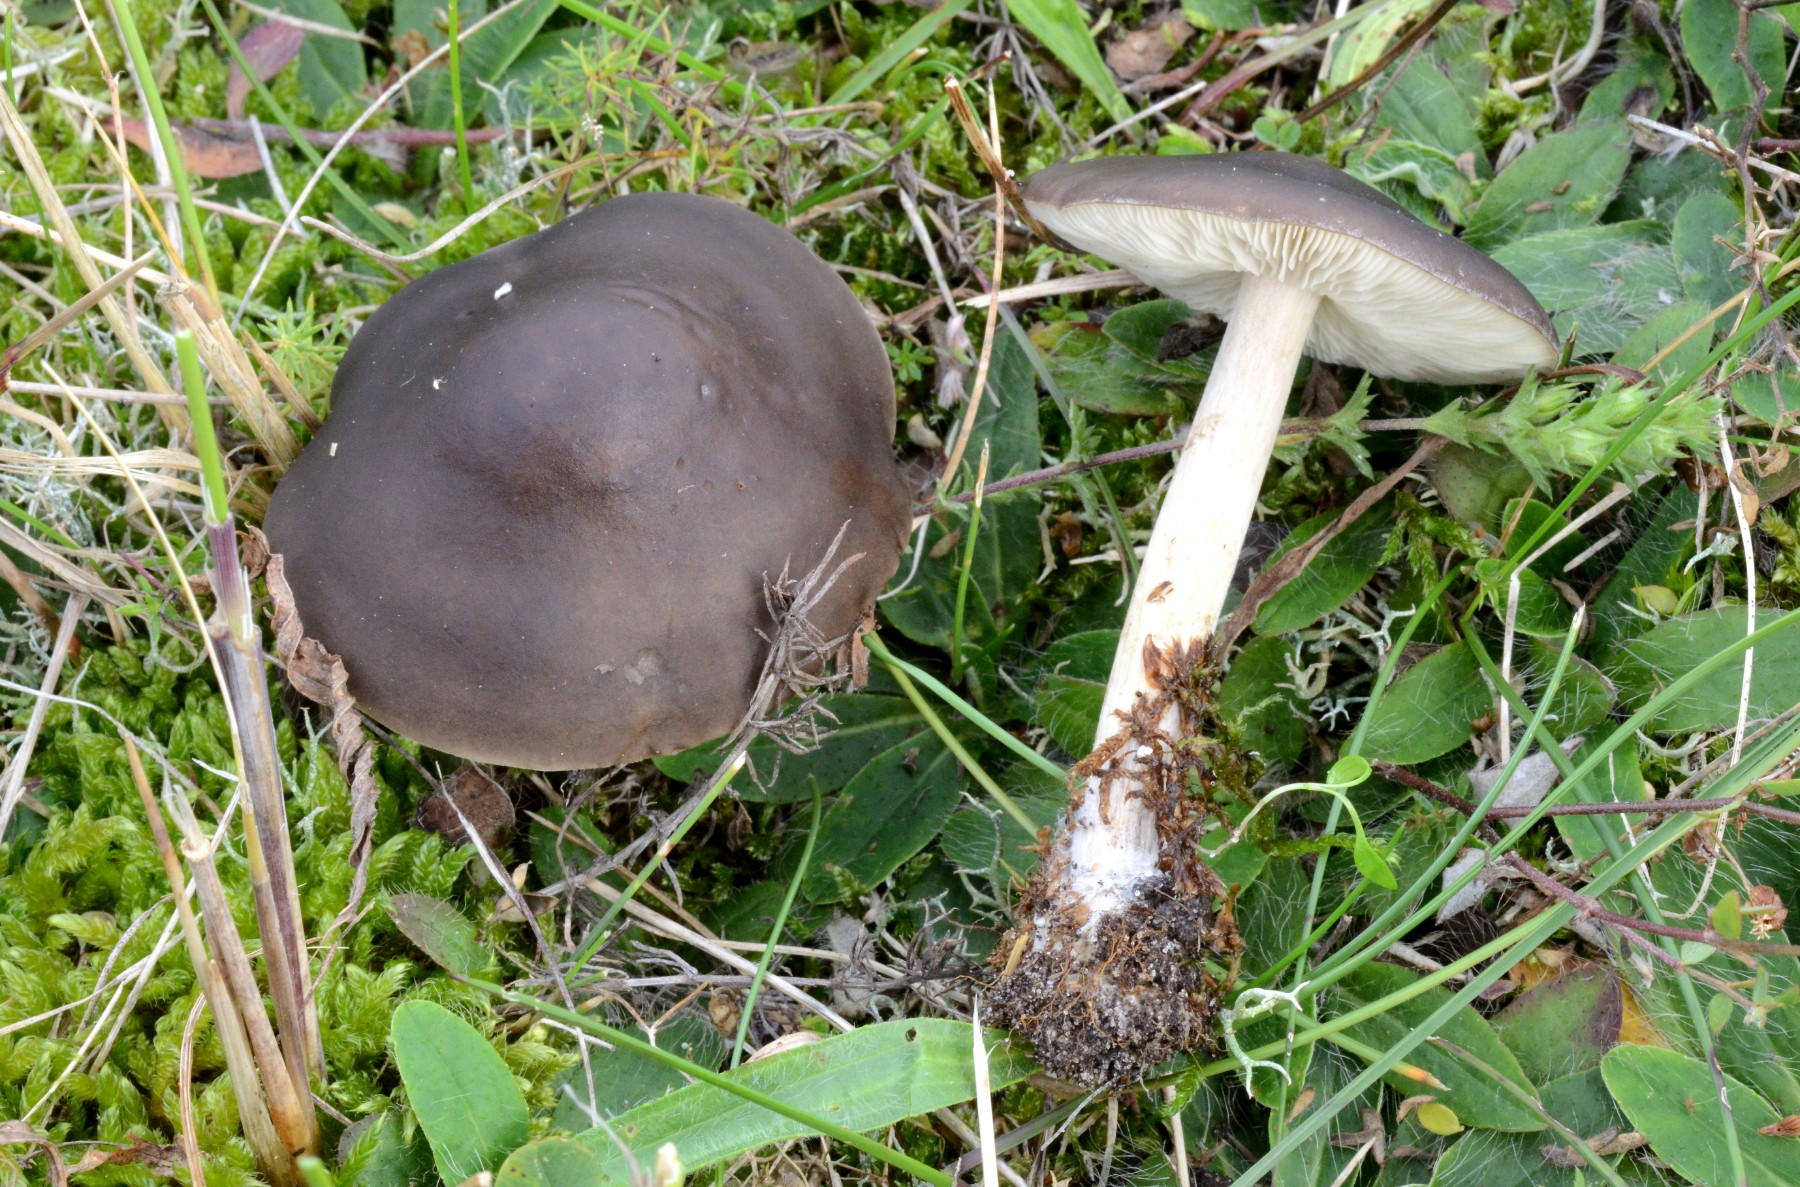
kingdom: Fungi
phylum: Basidiomycota
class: Agaricomycetes
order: Agaricales
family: Tricholomataceae
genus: Melanoleuca
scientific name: Melanoleuca bataillei
